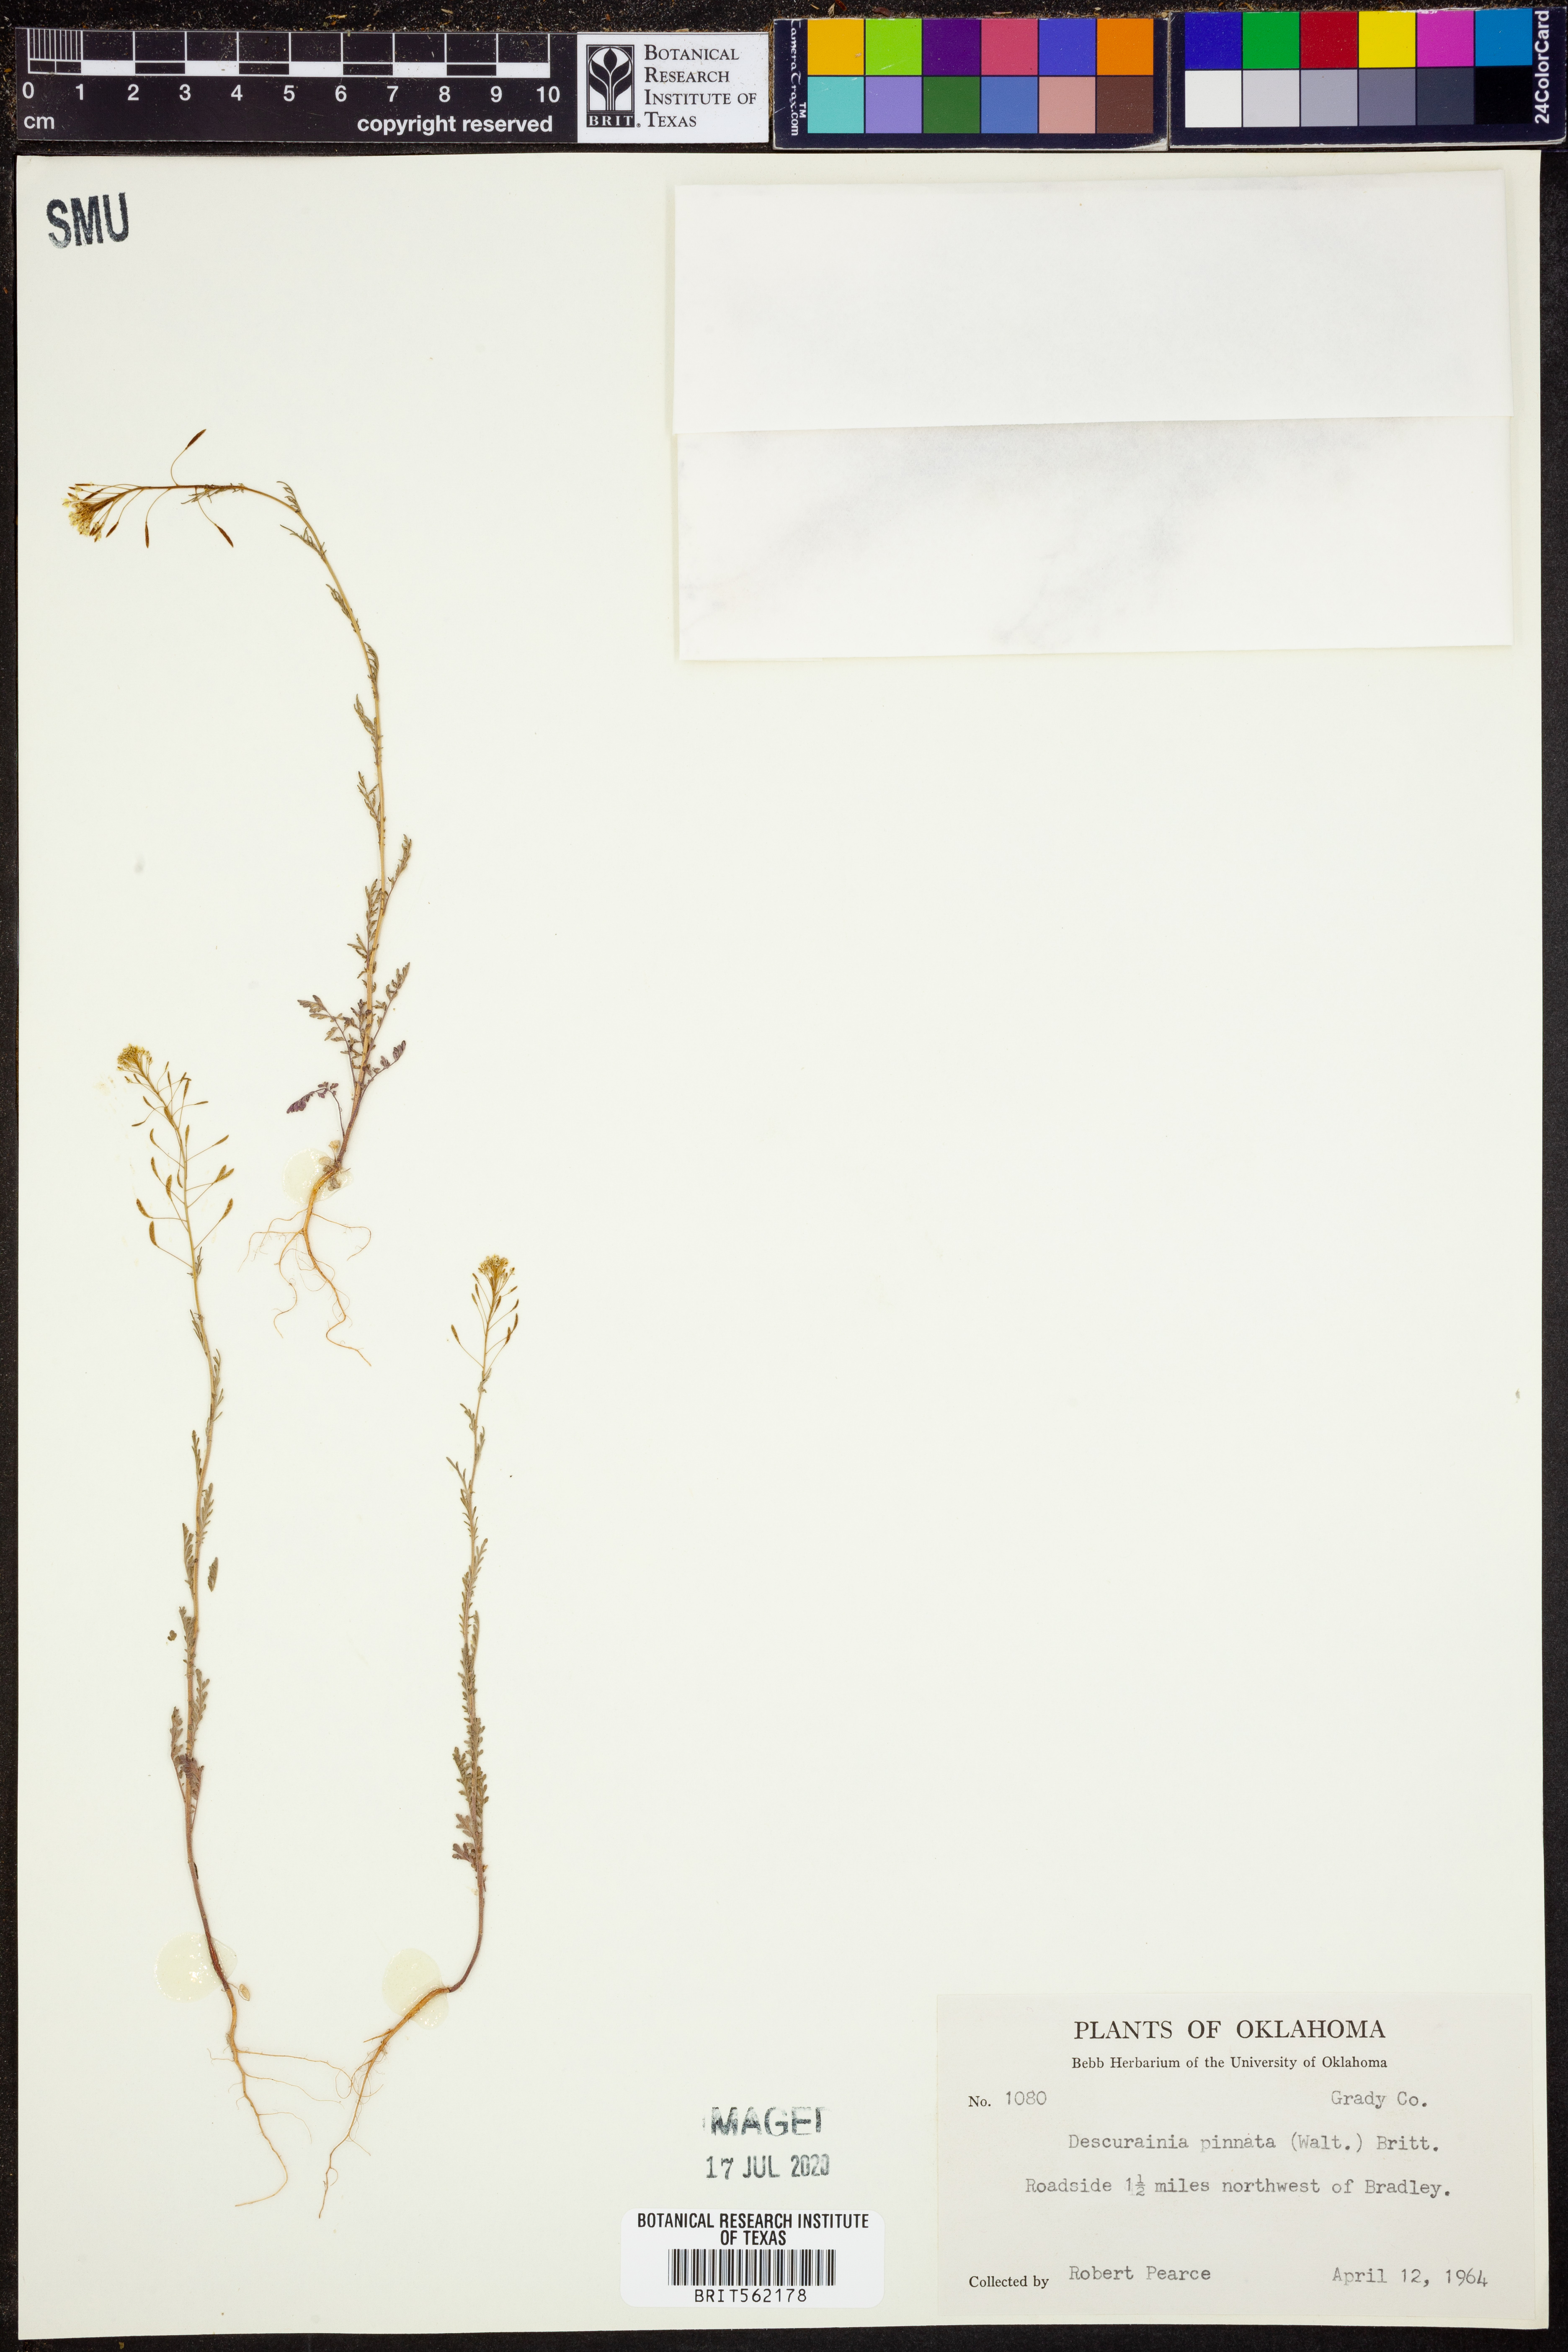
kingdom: Plantae
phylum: Tracheophyta
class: Magnoliopsida
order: Brassicales
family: Brassicaceae
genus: Descurainia
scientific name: Descurainia pinnata
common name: Western tansy mustard
